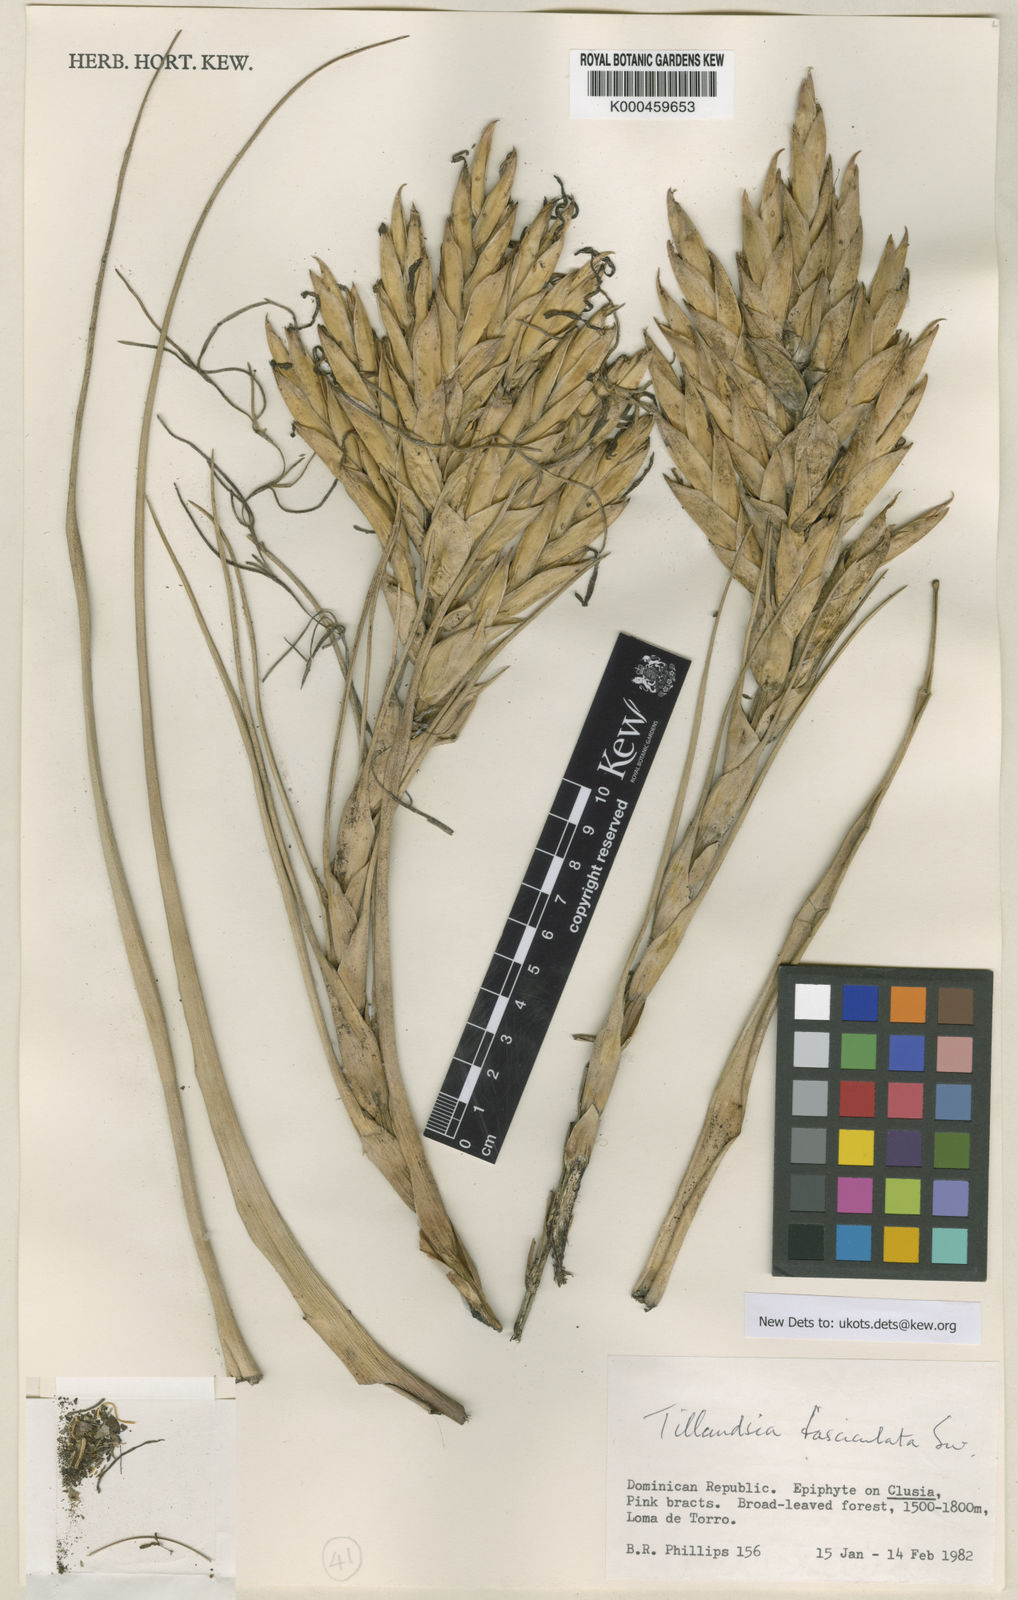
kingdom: Plantae
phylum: Tracheophyta
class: Liliopsida
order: Poales
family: Bromeliaceae
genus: Tillandsia
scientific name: Tillandsia
